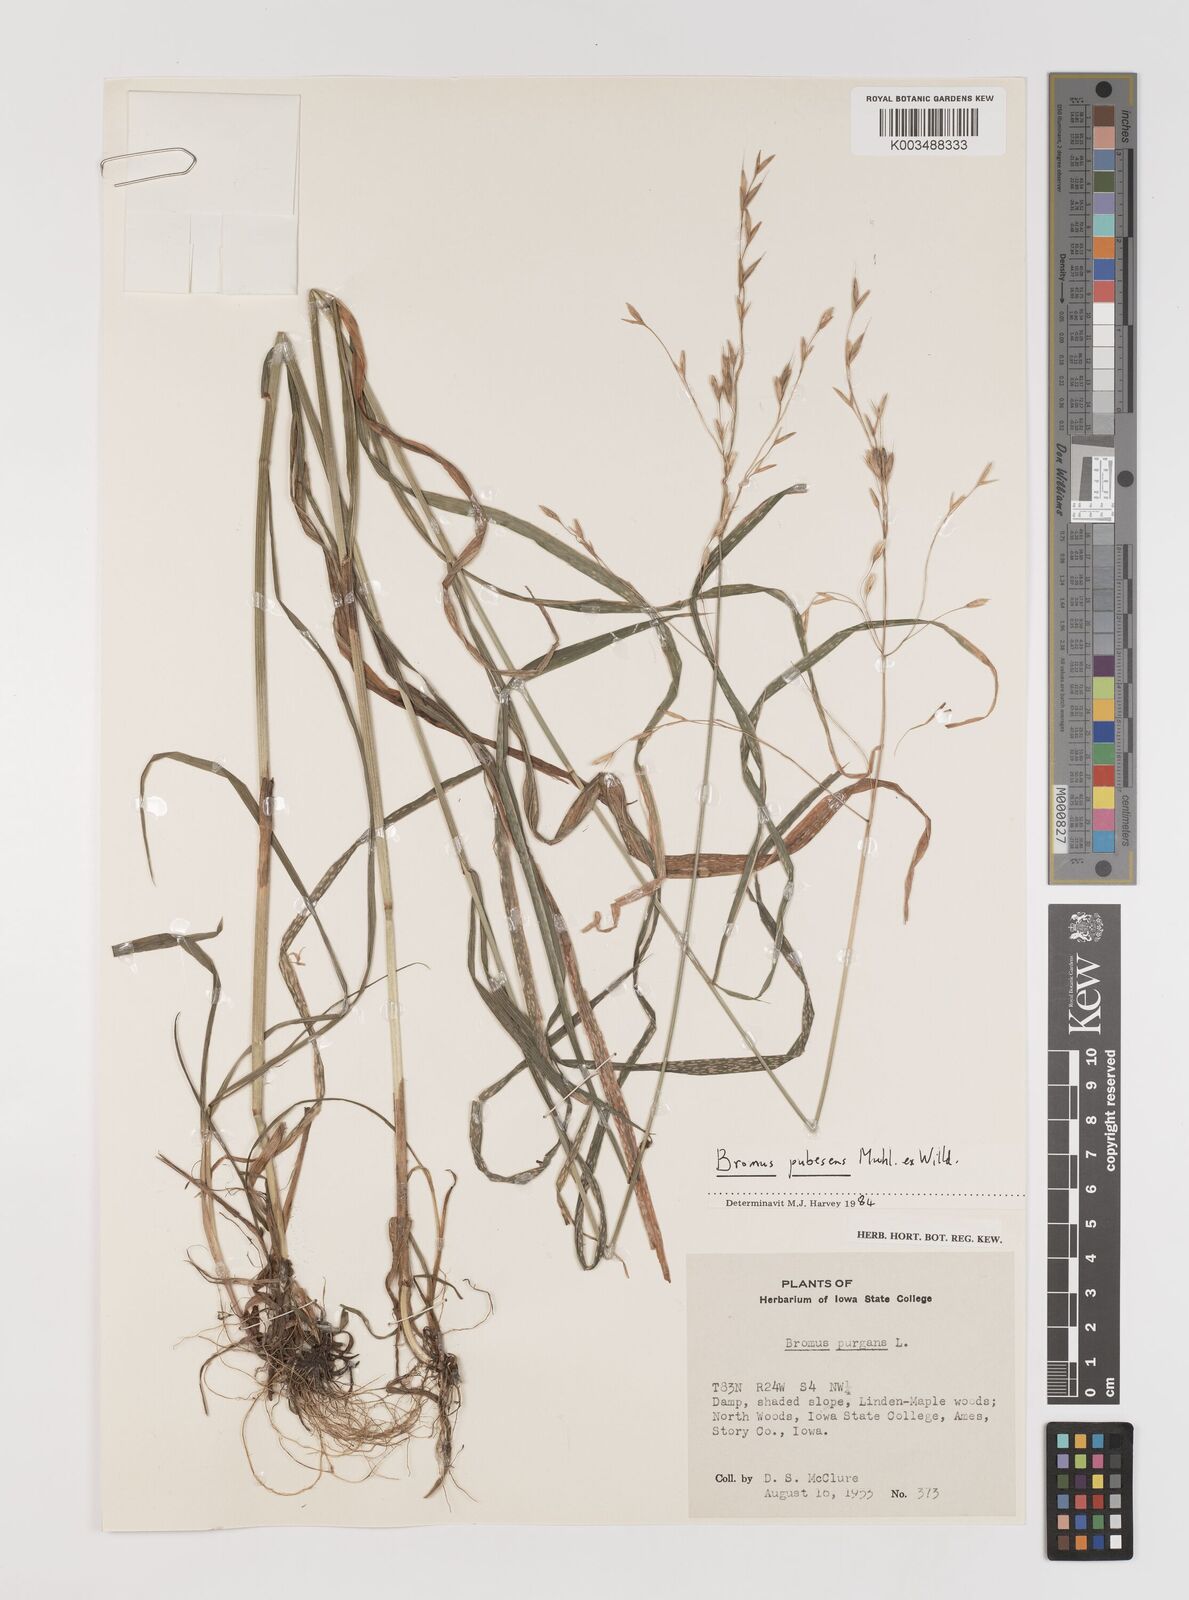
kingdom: Plantae
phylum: Tracheophyta
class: Liliopsida
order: Poales
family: Poaceae
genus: Bromus
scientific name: Bromus pubescens
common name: Hairy wood brome grass
